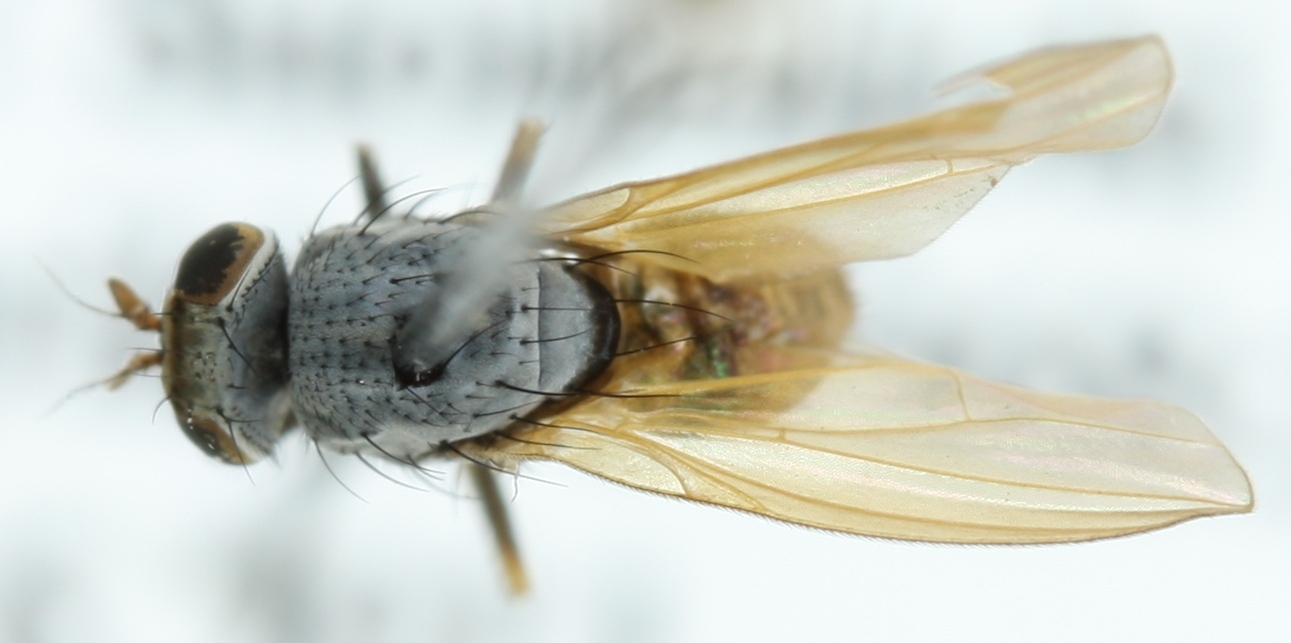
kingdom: Animalia
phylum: Arthropoda
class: Insecta
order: Diptera
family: Lauxaniidae
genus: Minettia
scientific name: Minettia lupulina
